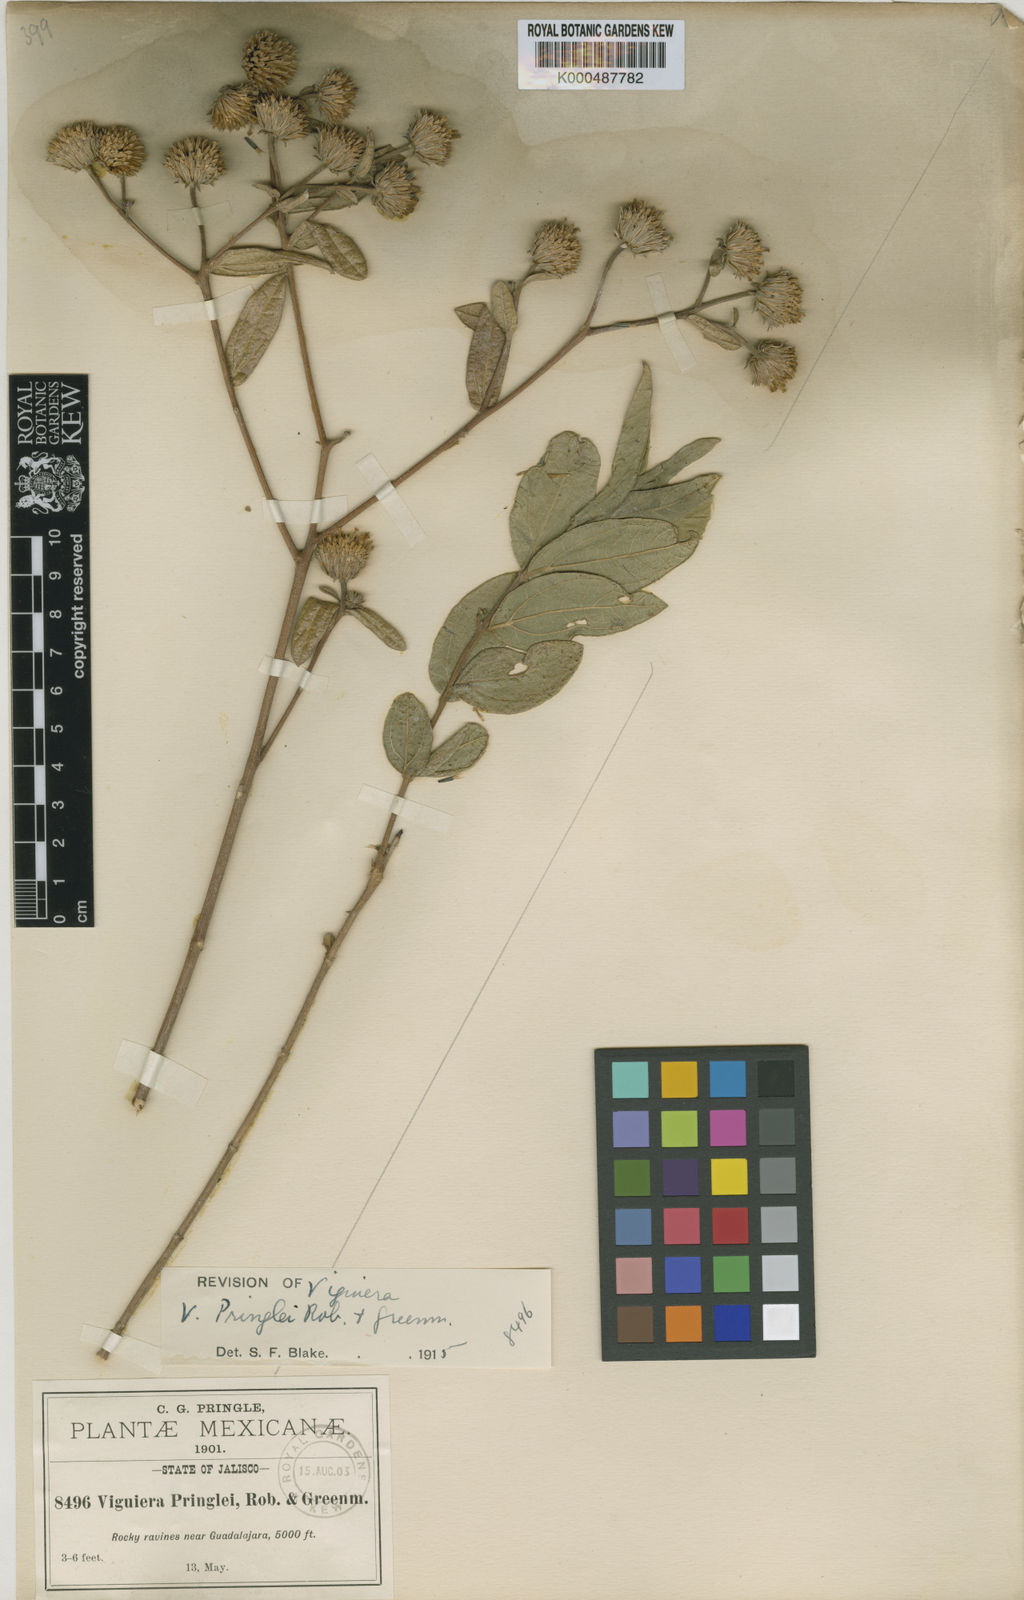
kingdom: Plantae
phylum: Tracheophyta
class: Magnoliopsida
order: Asterales
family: Asteraceae
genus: Aldama
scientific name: Aldama pringlei
